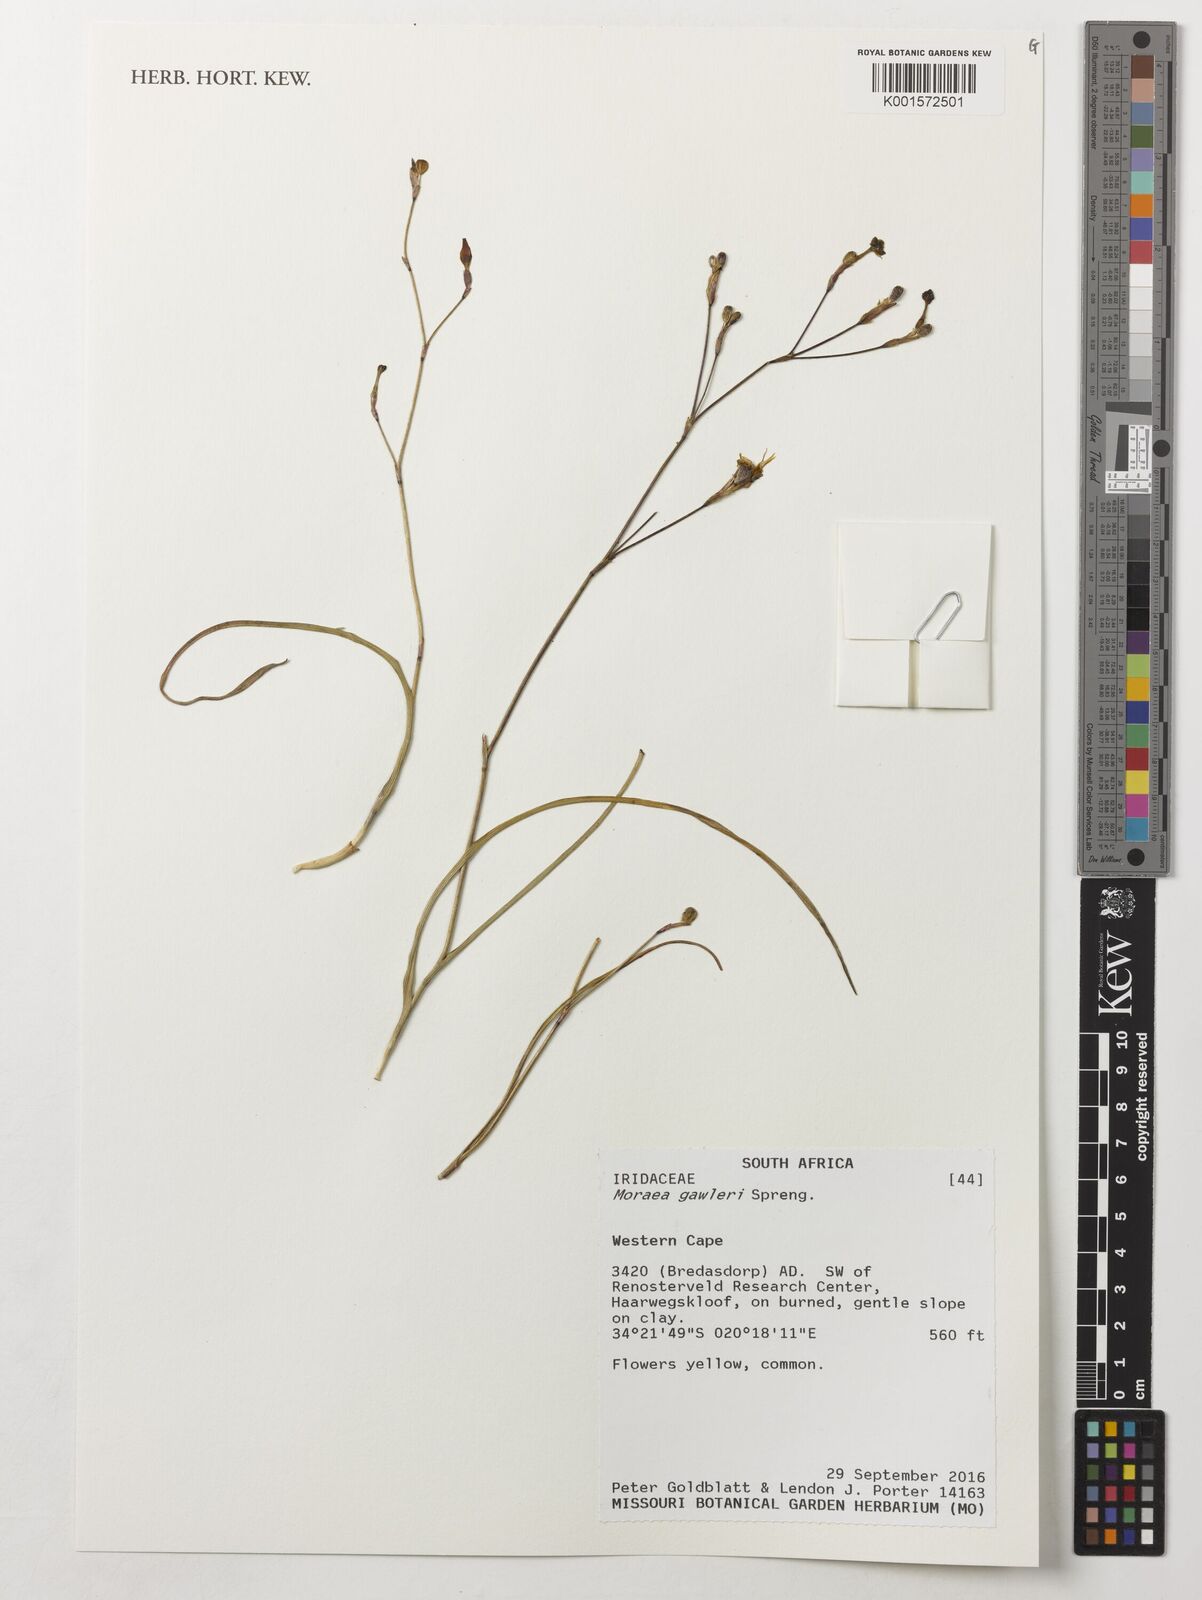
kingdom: Plantae
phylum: Tracheophyta
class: Liliopsida
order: Asparagales
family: Iridaceae
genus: Moraea
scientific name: Moraea gawleri
